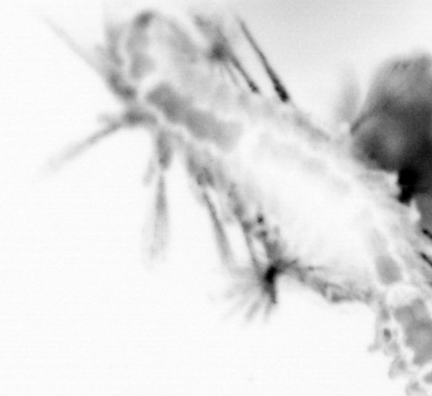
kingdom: Animalia
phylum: Annelida
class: Polychaeta
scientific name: Polychaeta
